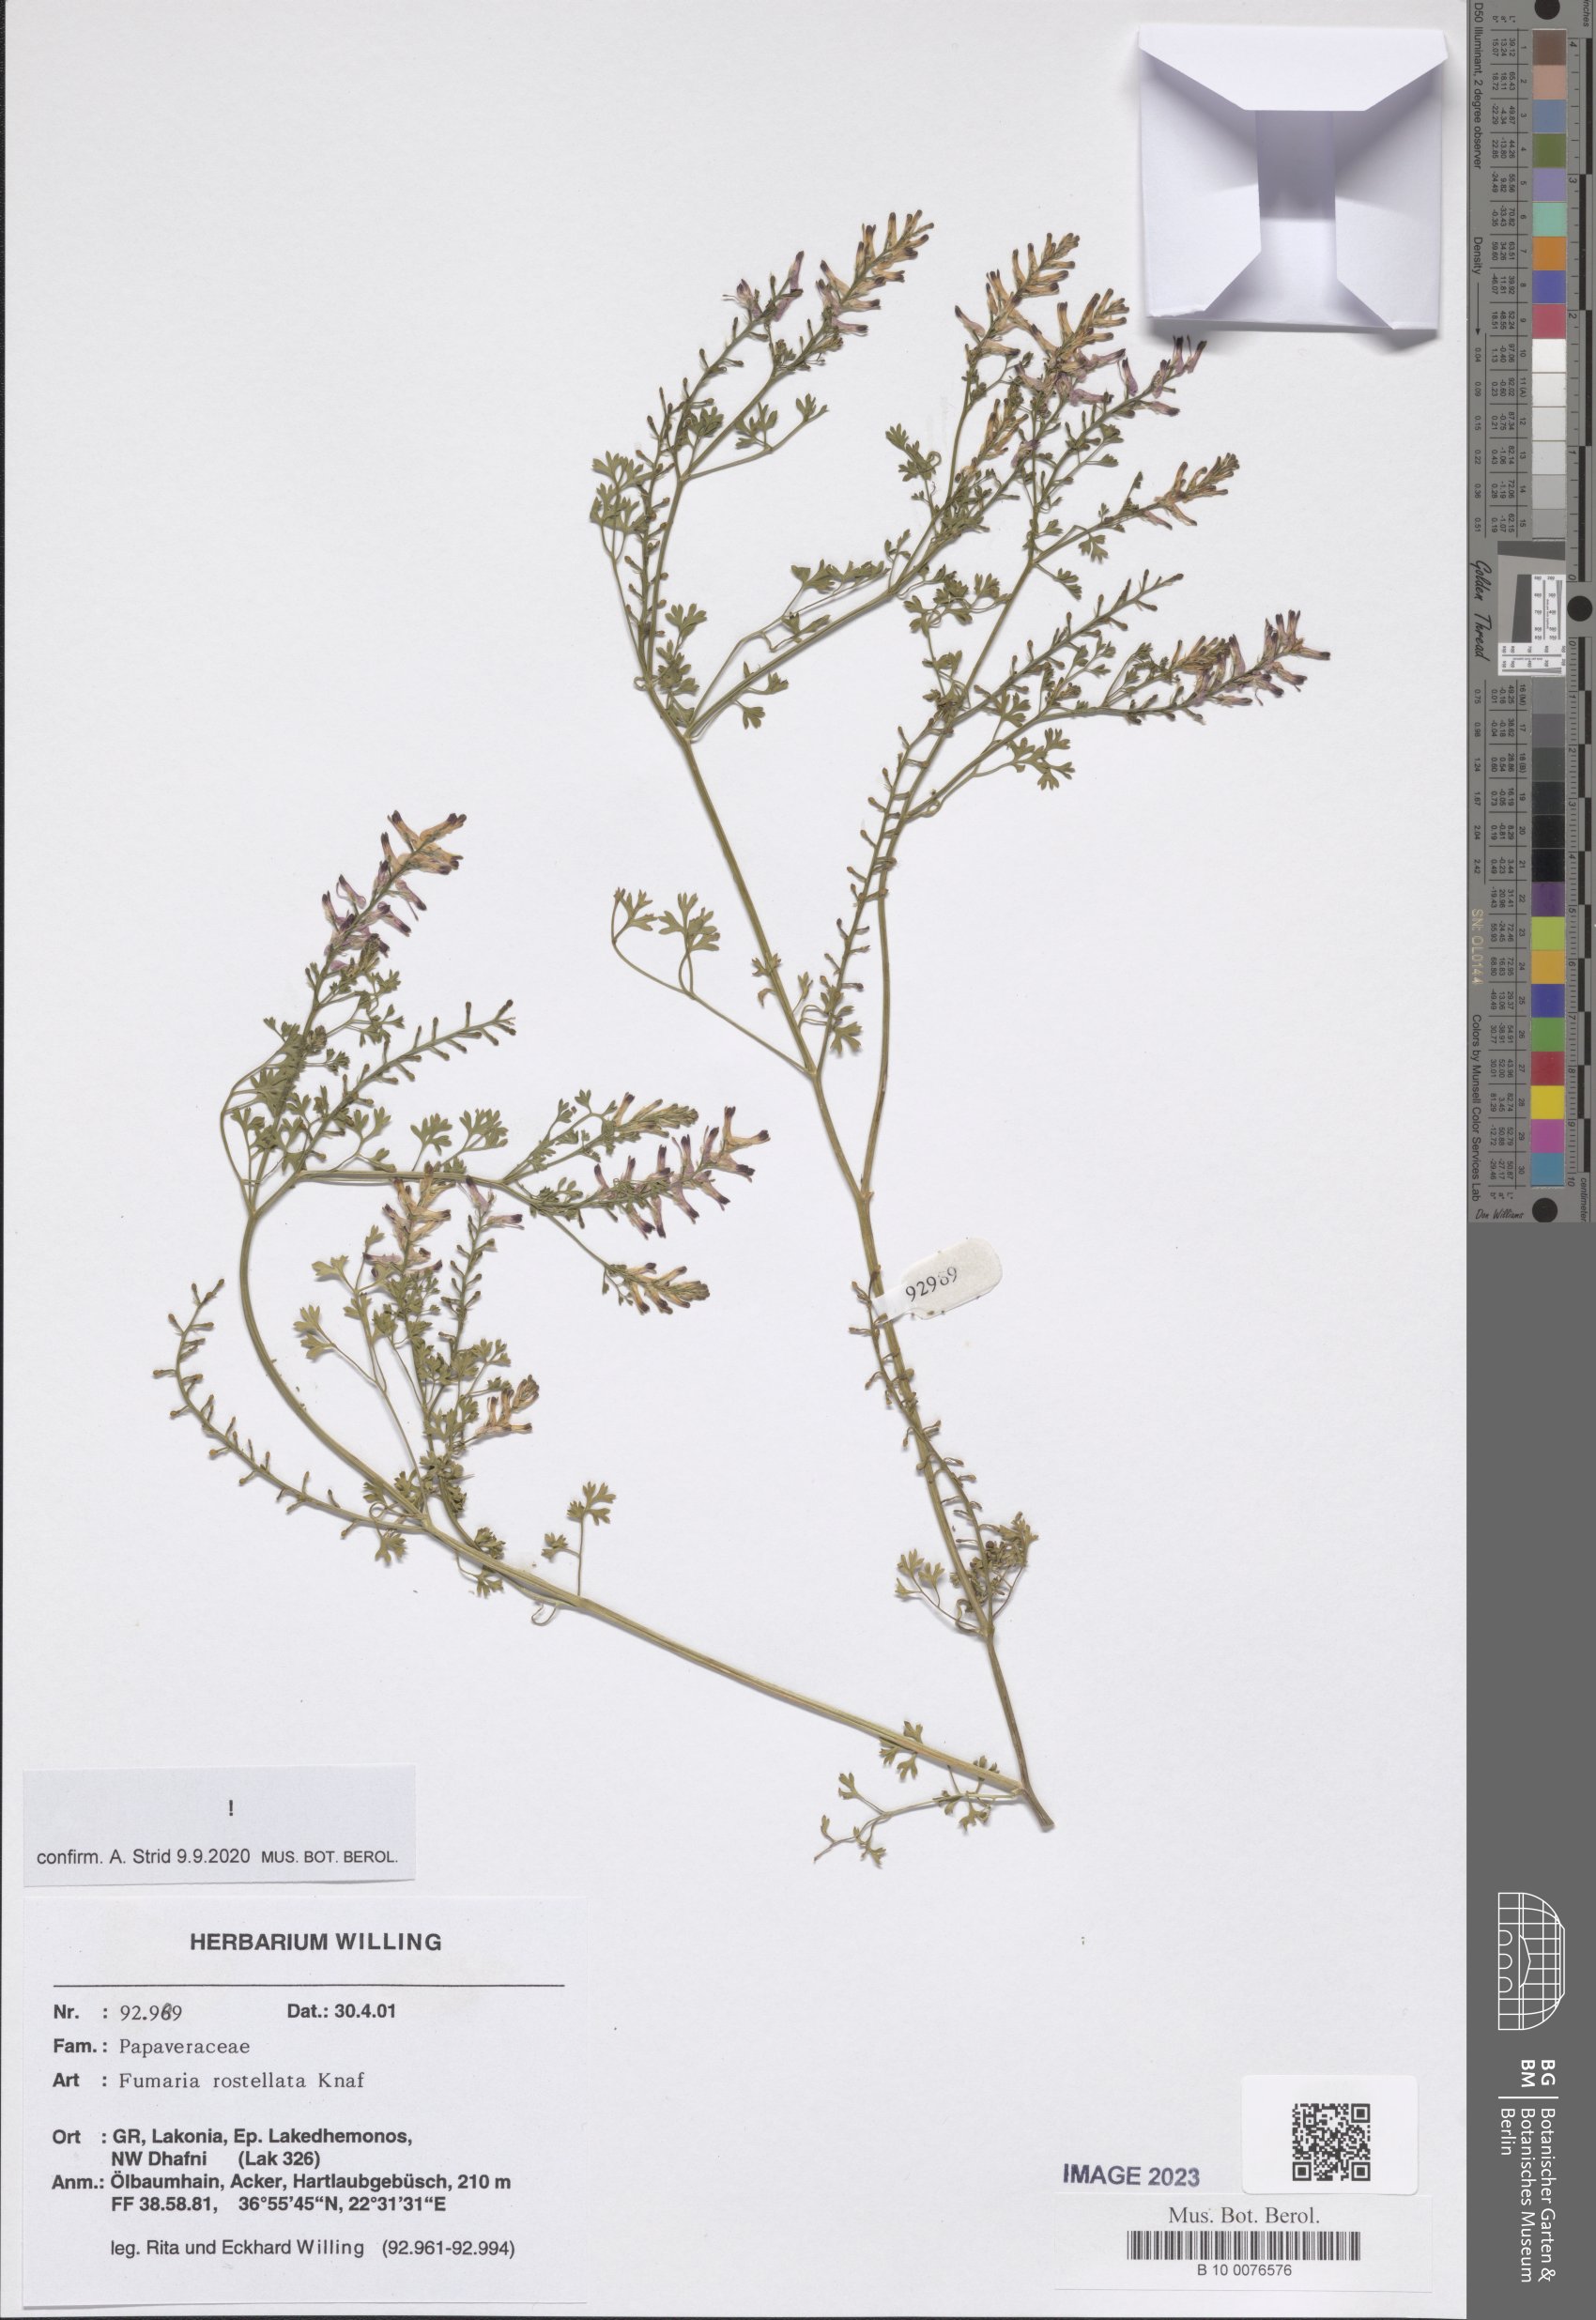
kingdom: Plantae
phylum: Tracheophyta
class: Magnoliopsida
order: Ranunculales
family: Papaveraceae
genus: Fumaria
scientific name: Fumaria rostellata
